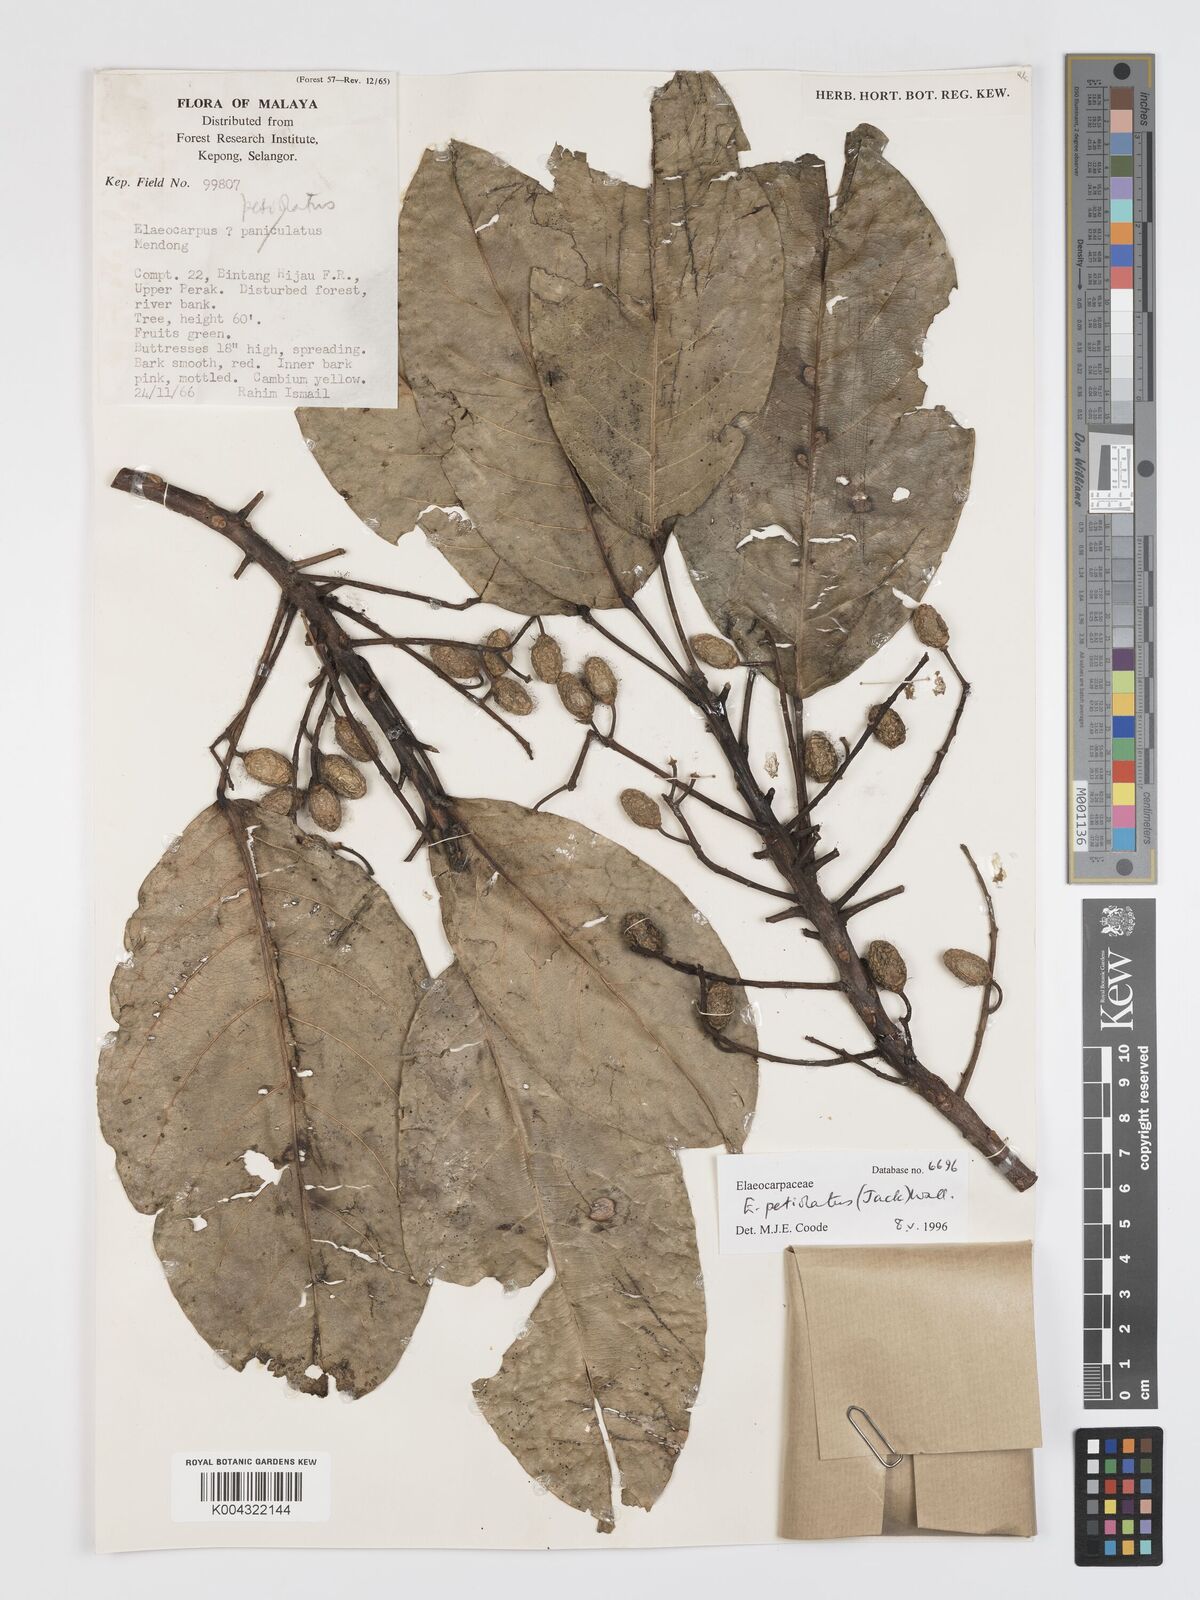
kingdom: Plantae
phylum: Tracheophyta
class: Magnoliopsida
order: Oxalidales
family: Elaeocarpaceae
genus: Elaeocarpus
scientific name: Elaeocarpus petiolatus
